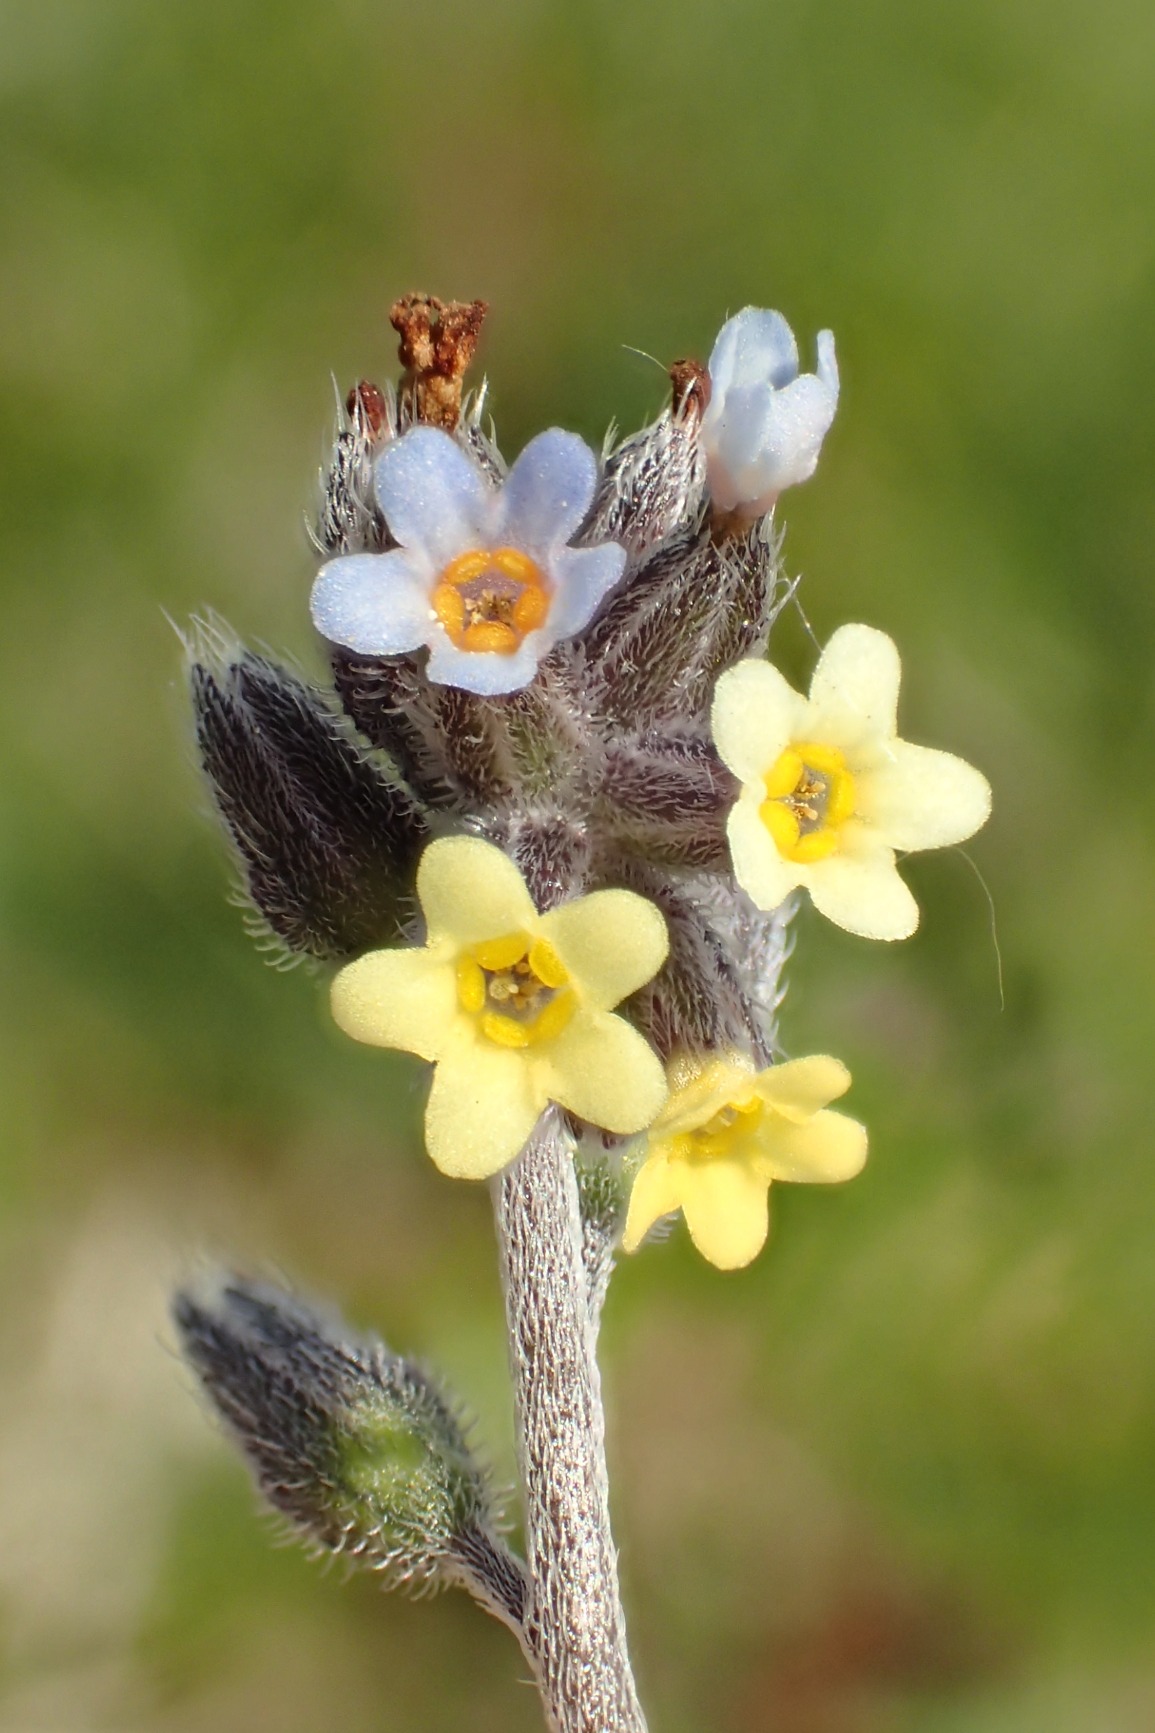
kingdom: Plantae
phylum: Tracheophyta
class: Magnoliopsida
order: Boraginales
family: Boraginaceae
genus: Myosotis
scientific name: Myosotis discolor
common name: Forskelligfarvet forglemmigej
